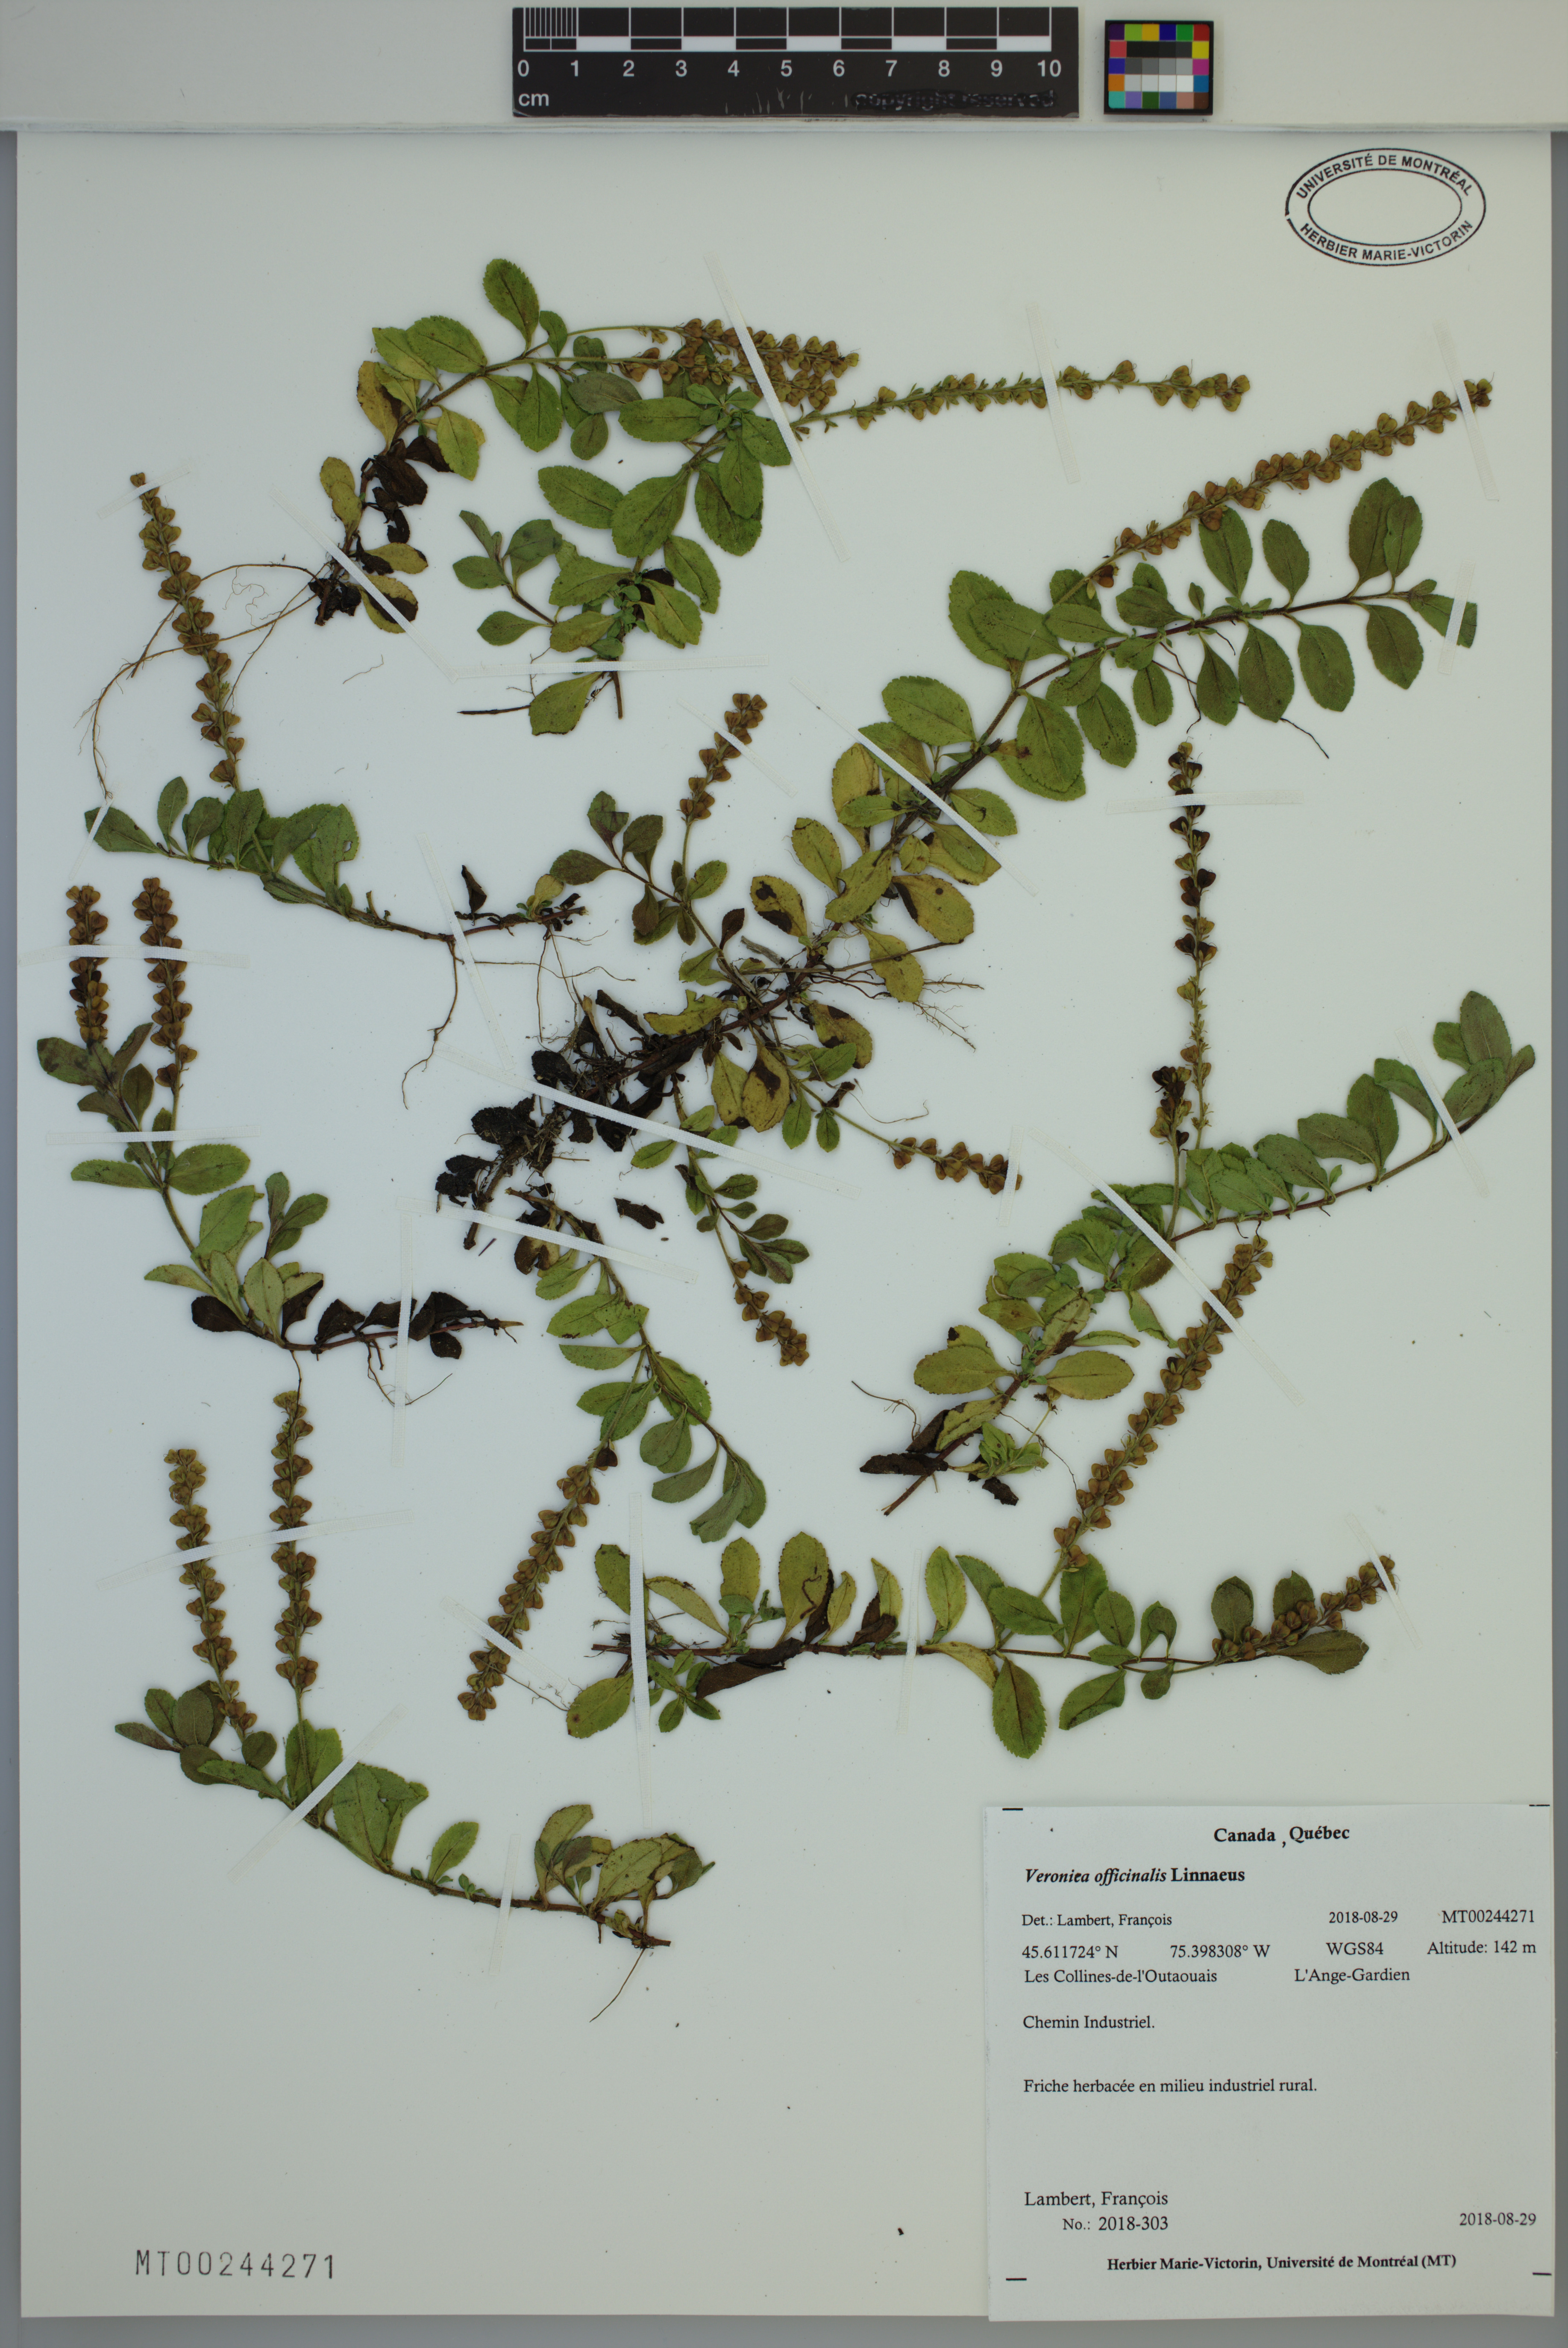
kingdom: Plantae
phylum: Tracheophyta
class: Magnoliopsida
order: Lamiales
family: Plantaginaceae
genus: Veronica
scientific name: Veronica officinalis
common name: Common speedwell
